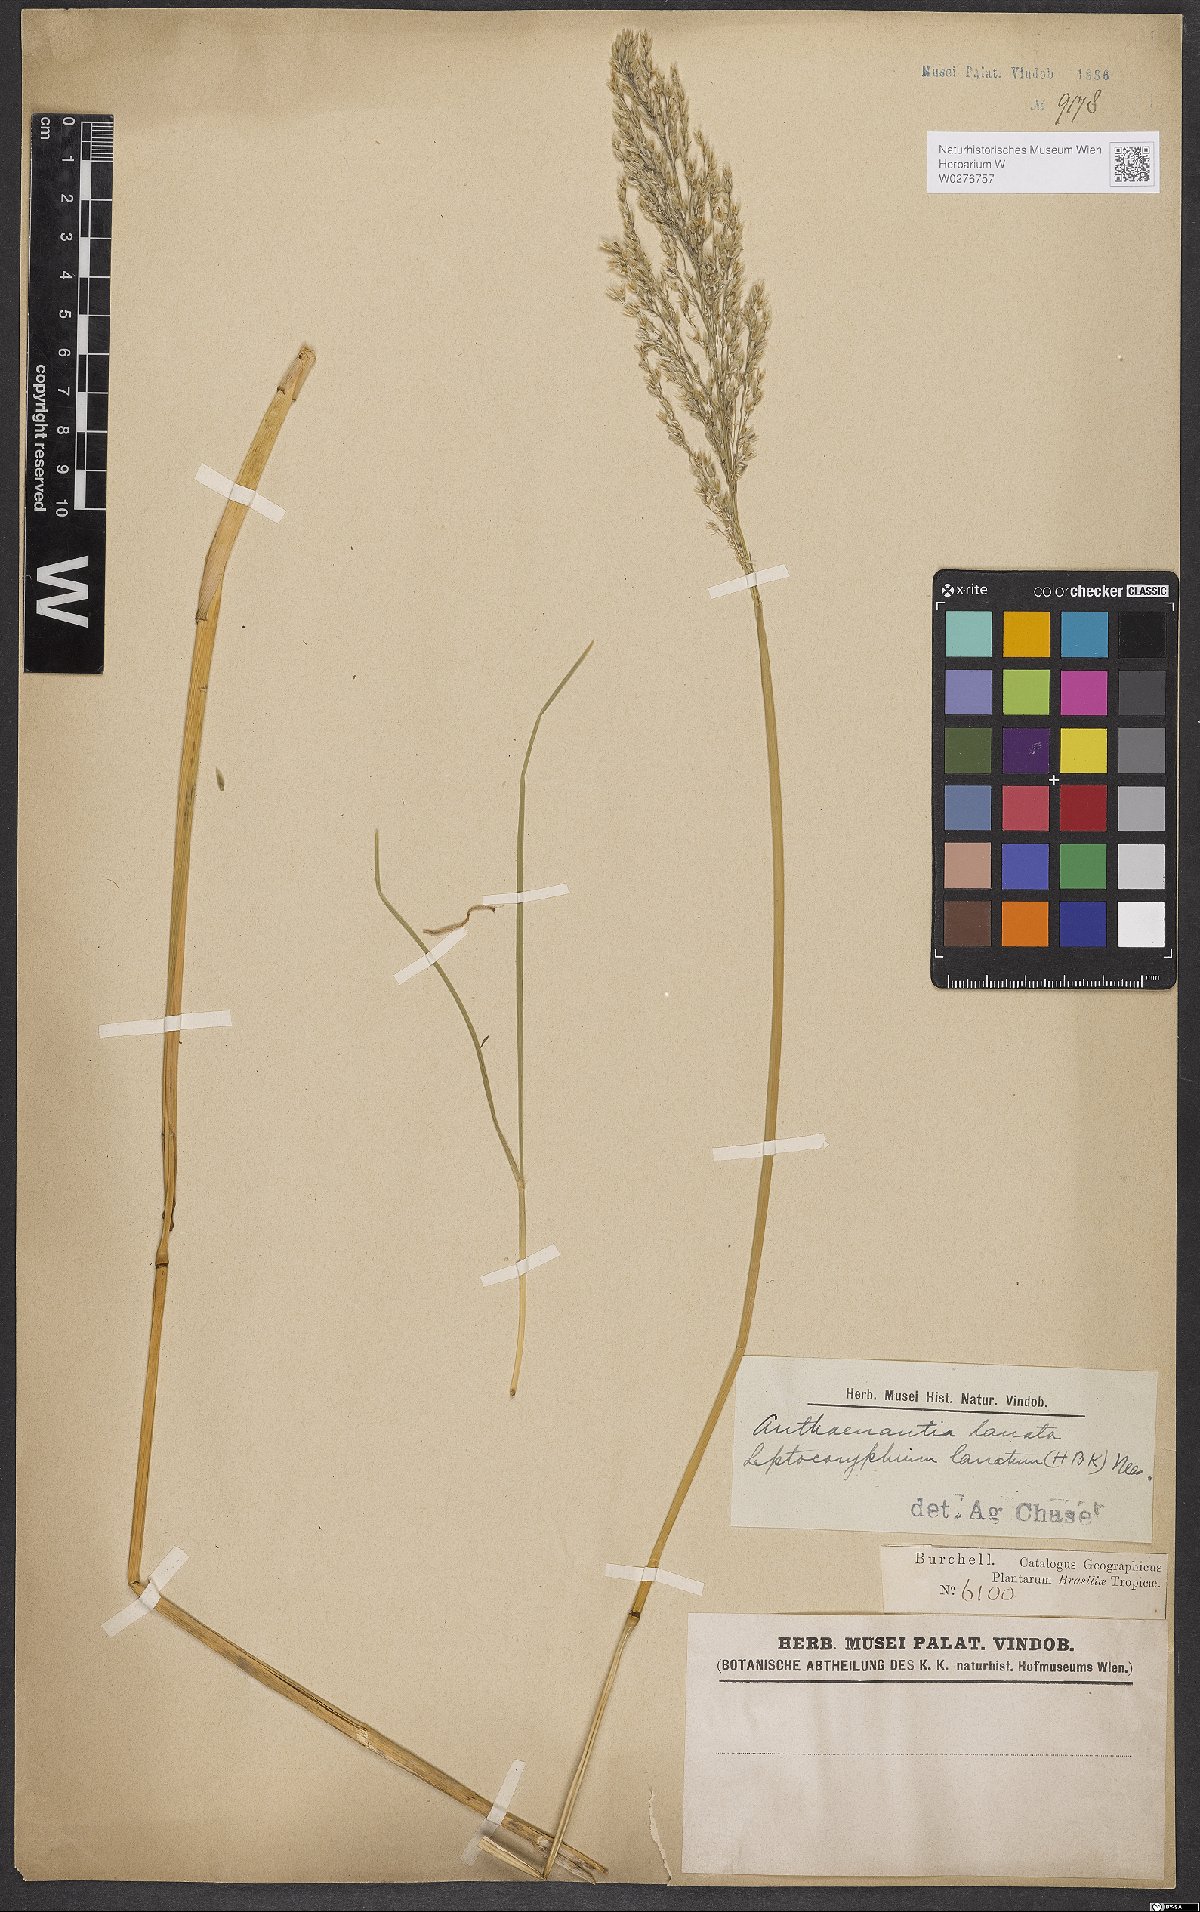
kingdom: Plantae
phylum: Tracheophyta
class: Liliopsida
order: Poales
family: Poaceae
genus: Anthaenantia
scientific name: Anthaenantia lanata
